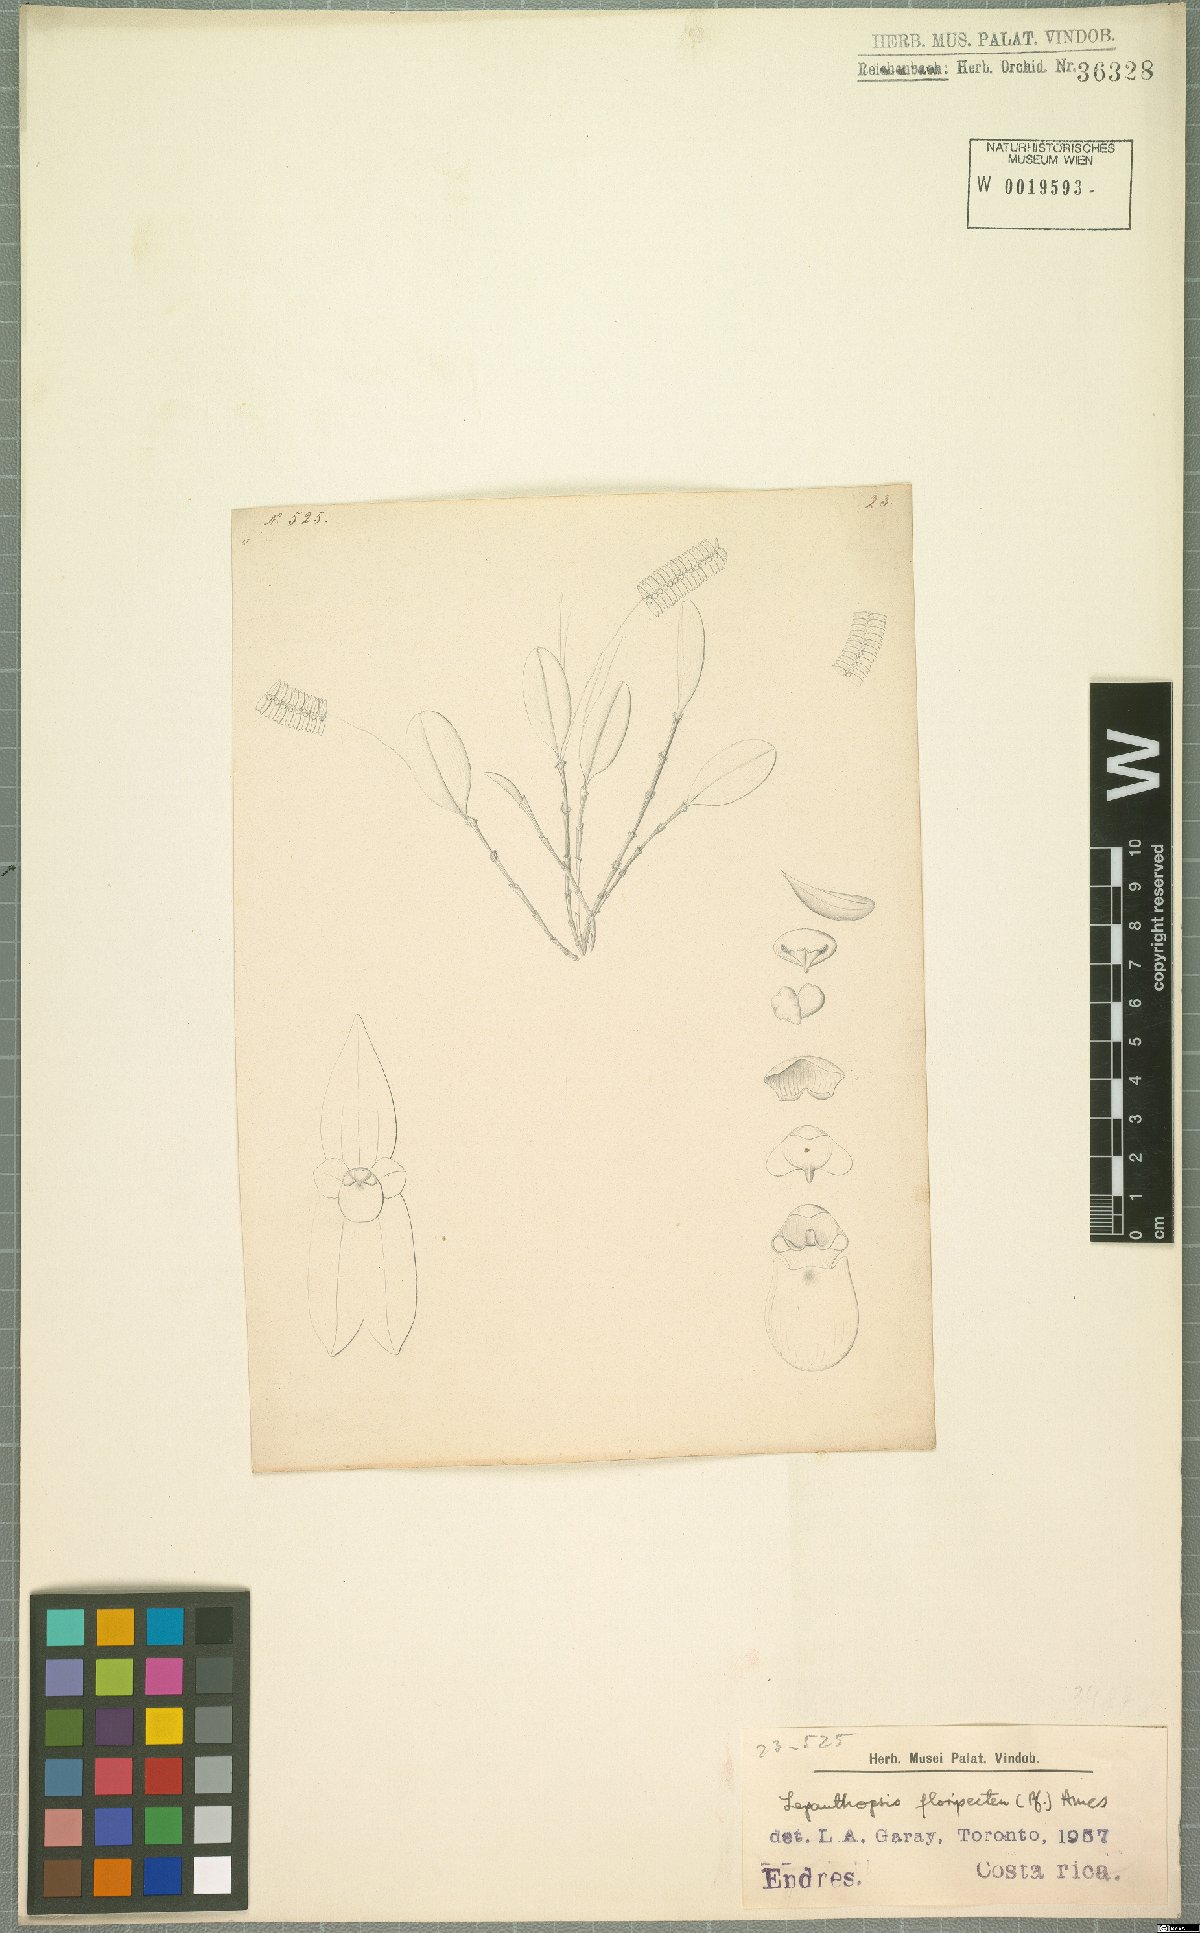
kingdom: Plantae
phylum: Tracheophyta
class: Liliopsida
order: Asparagales
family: Orchidaceae
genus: Lepanthopsis
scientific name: Lepanthopsis floripecten
